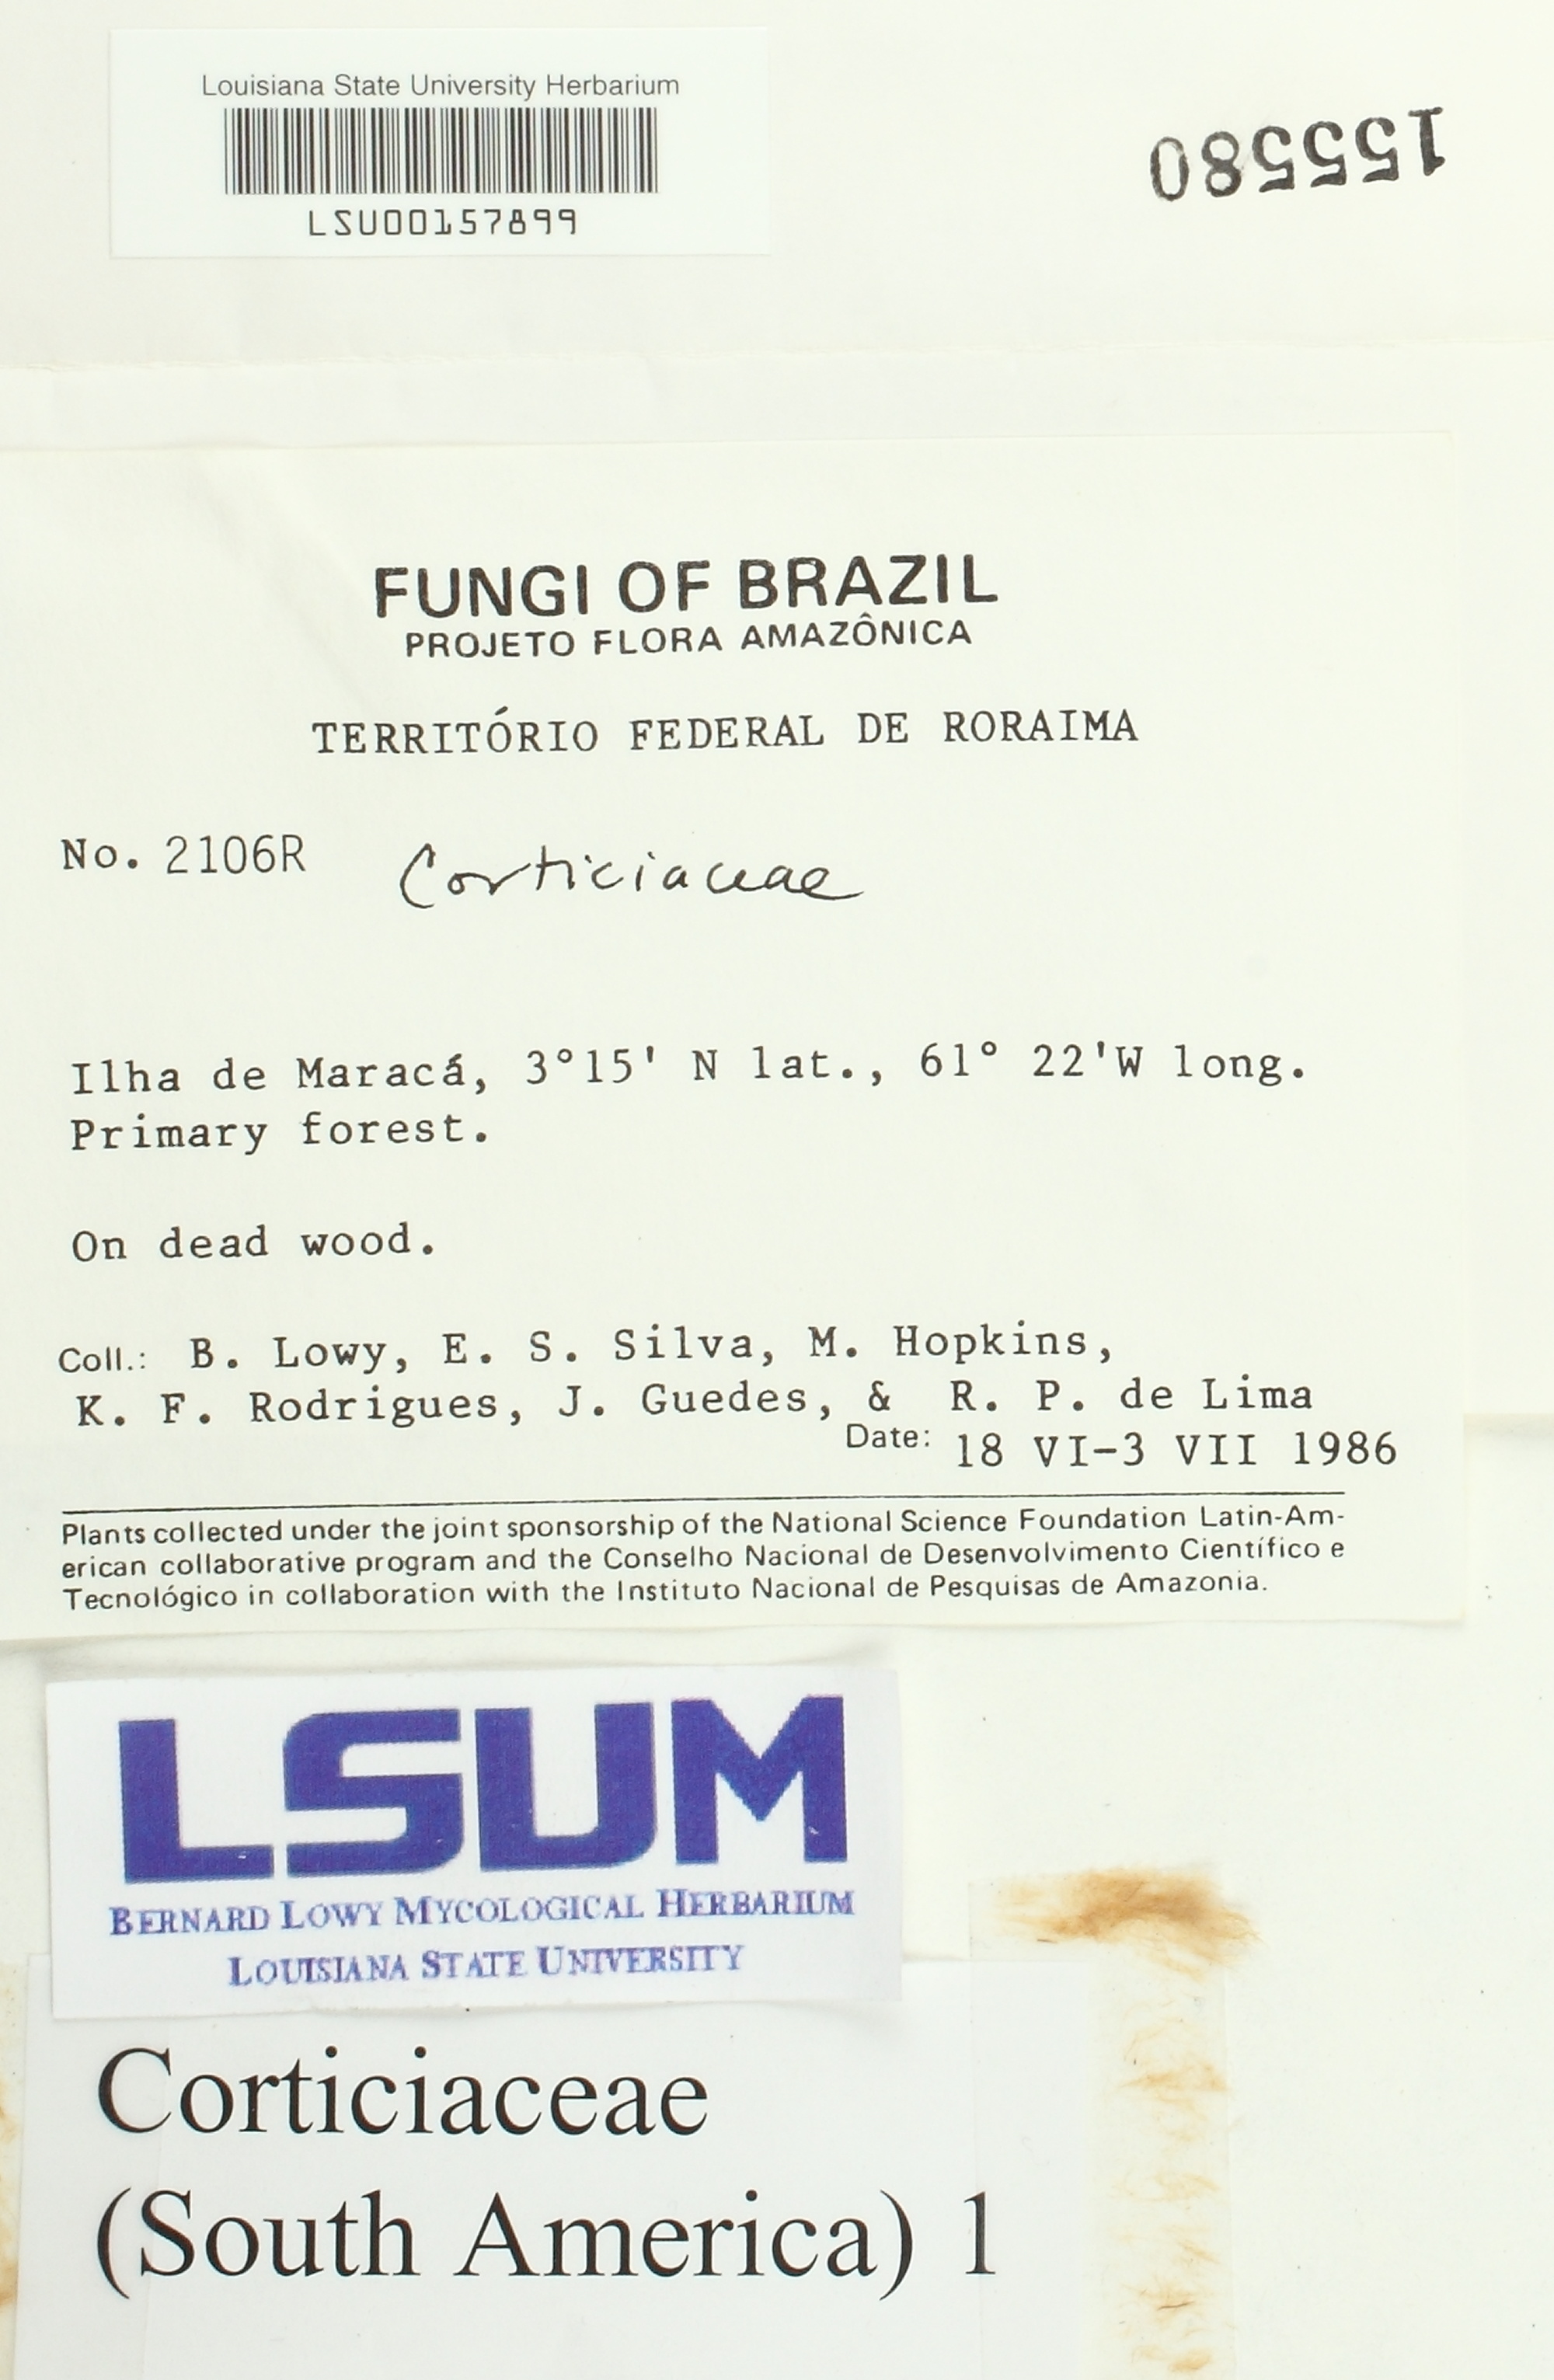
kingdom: Fungi
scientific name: Fungi
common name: Fungi
